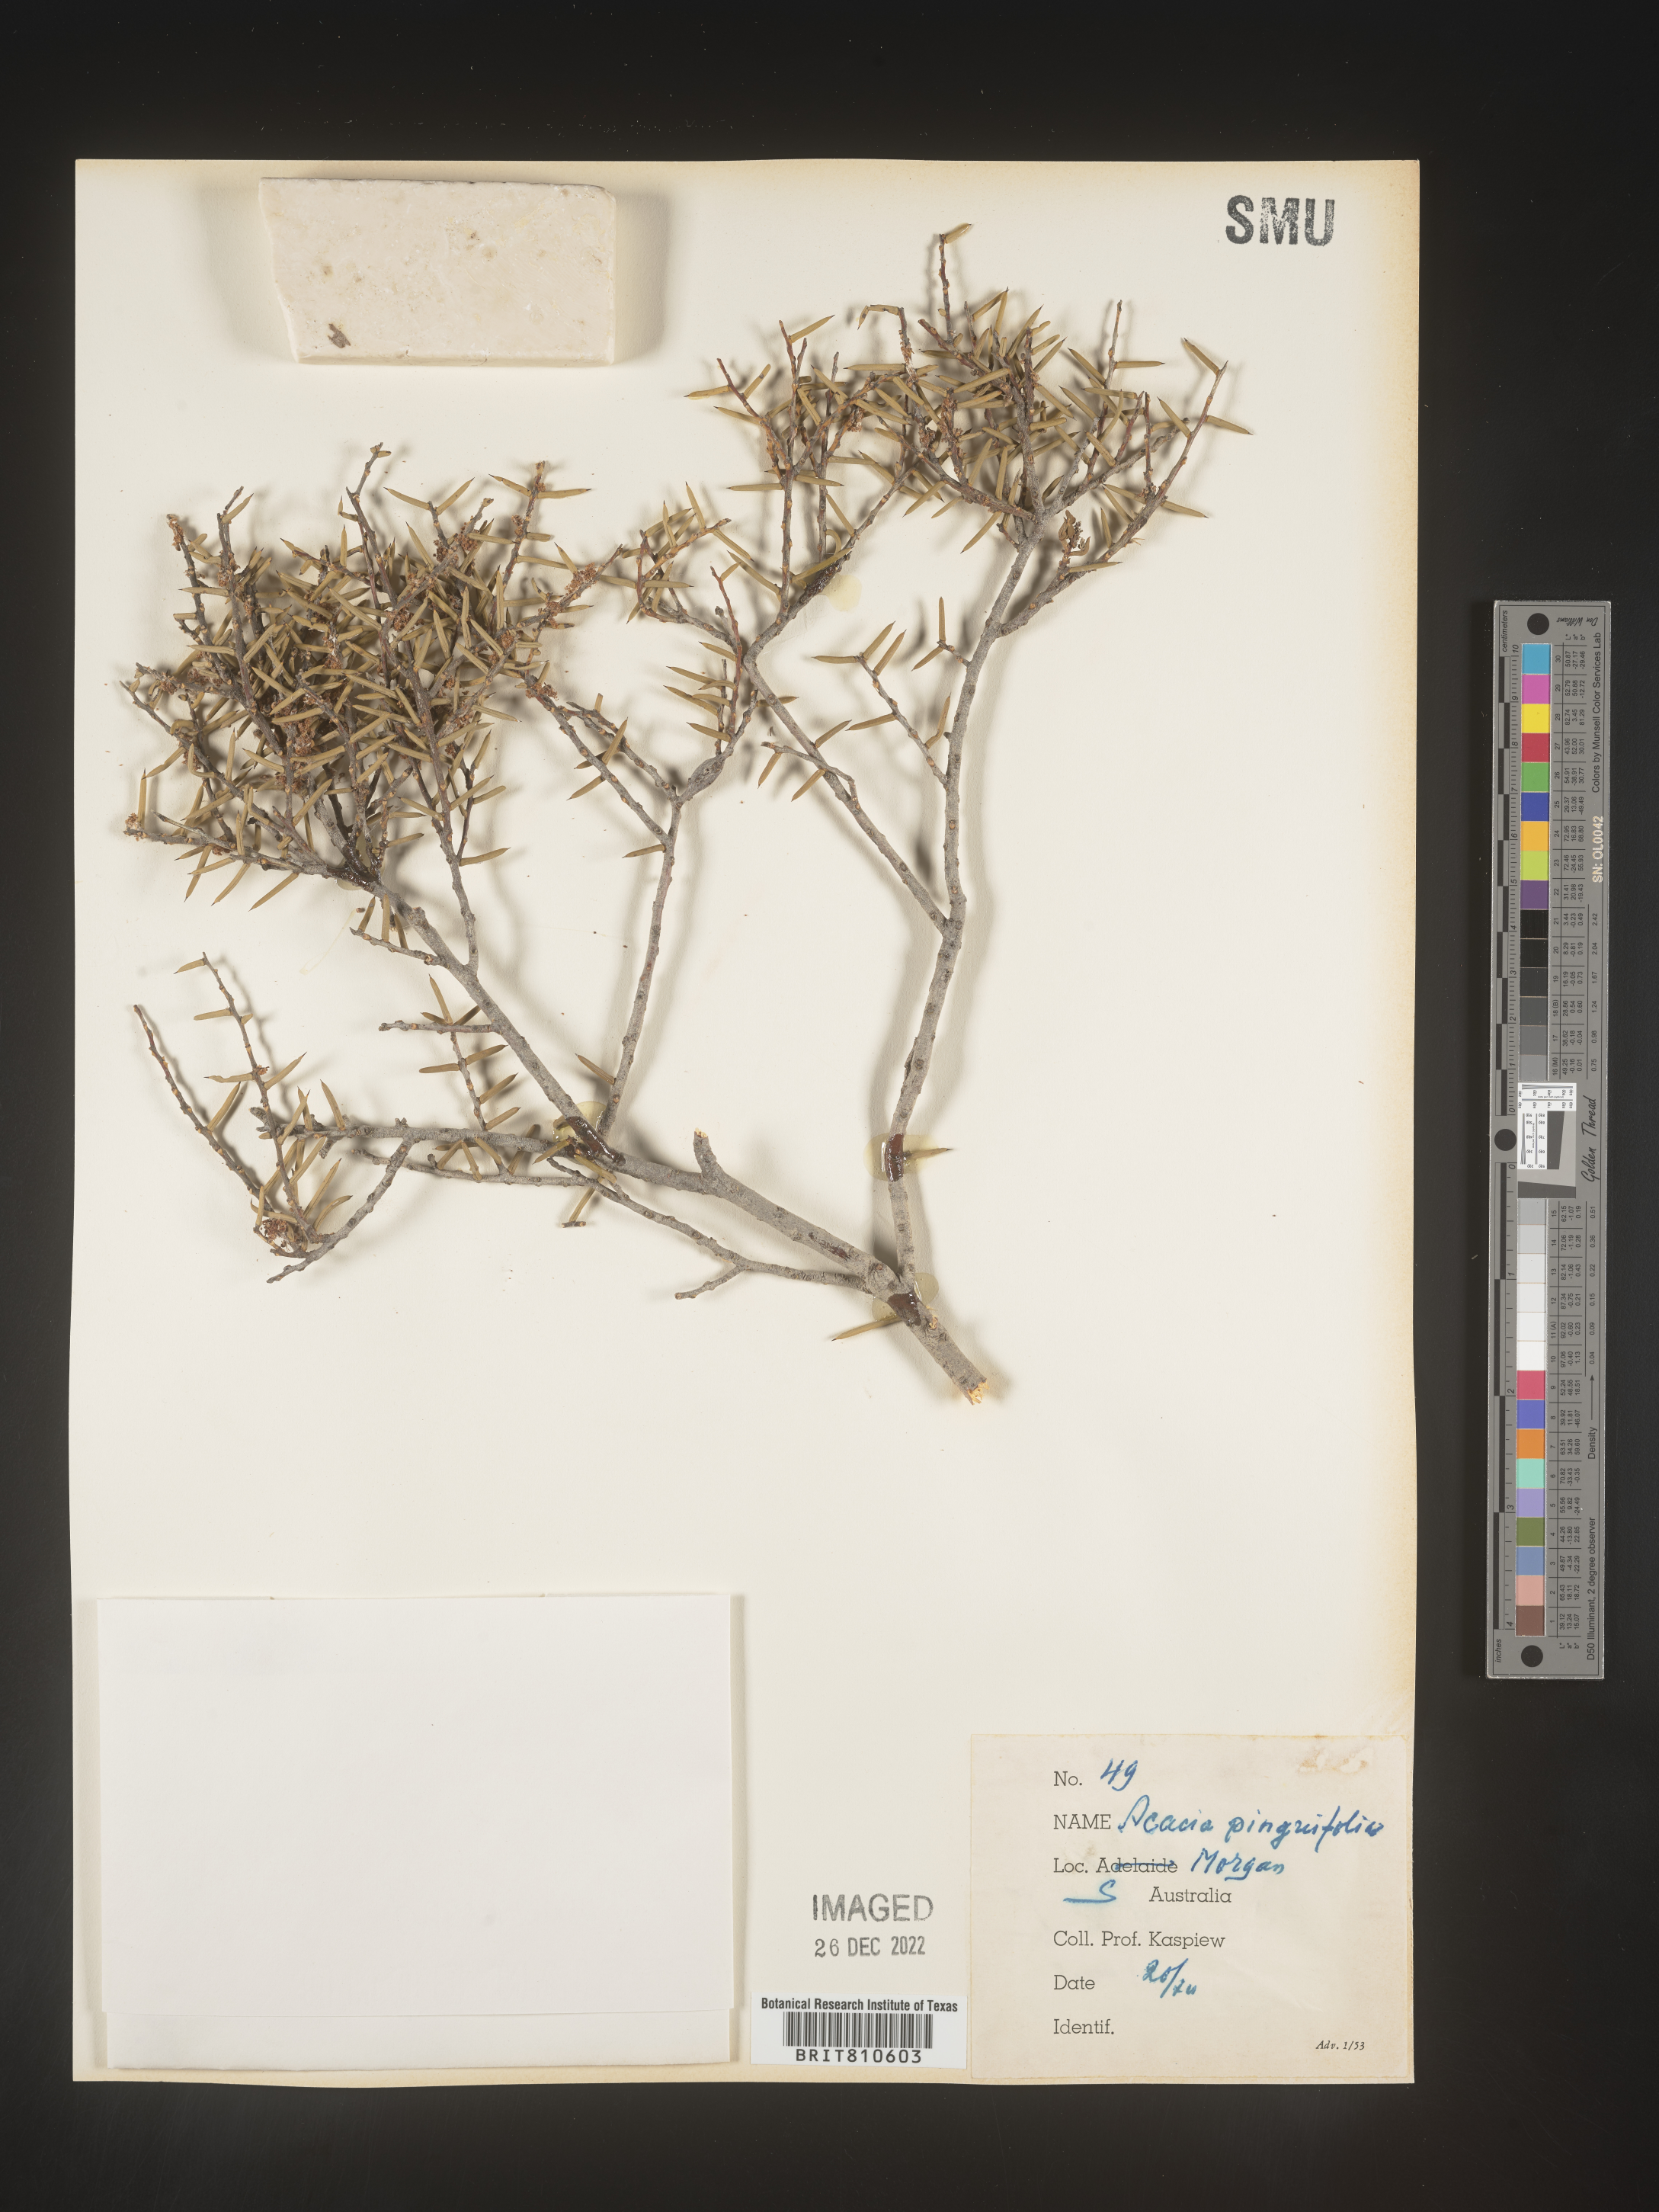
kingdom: Plantae
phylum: Tracheophyta
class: Magnoliopsida
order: Fabales
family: Fabaceae
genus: Acacia
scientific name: Acacia
